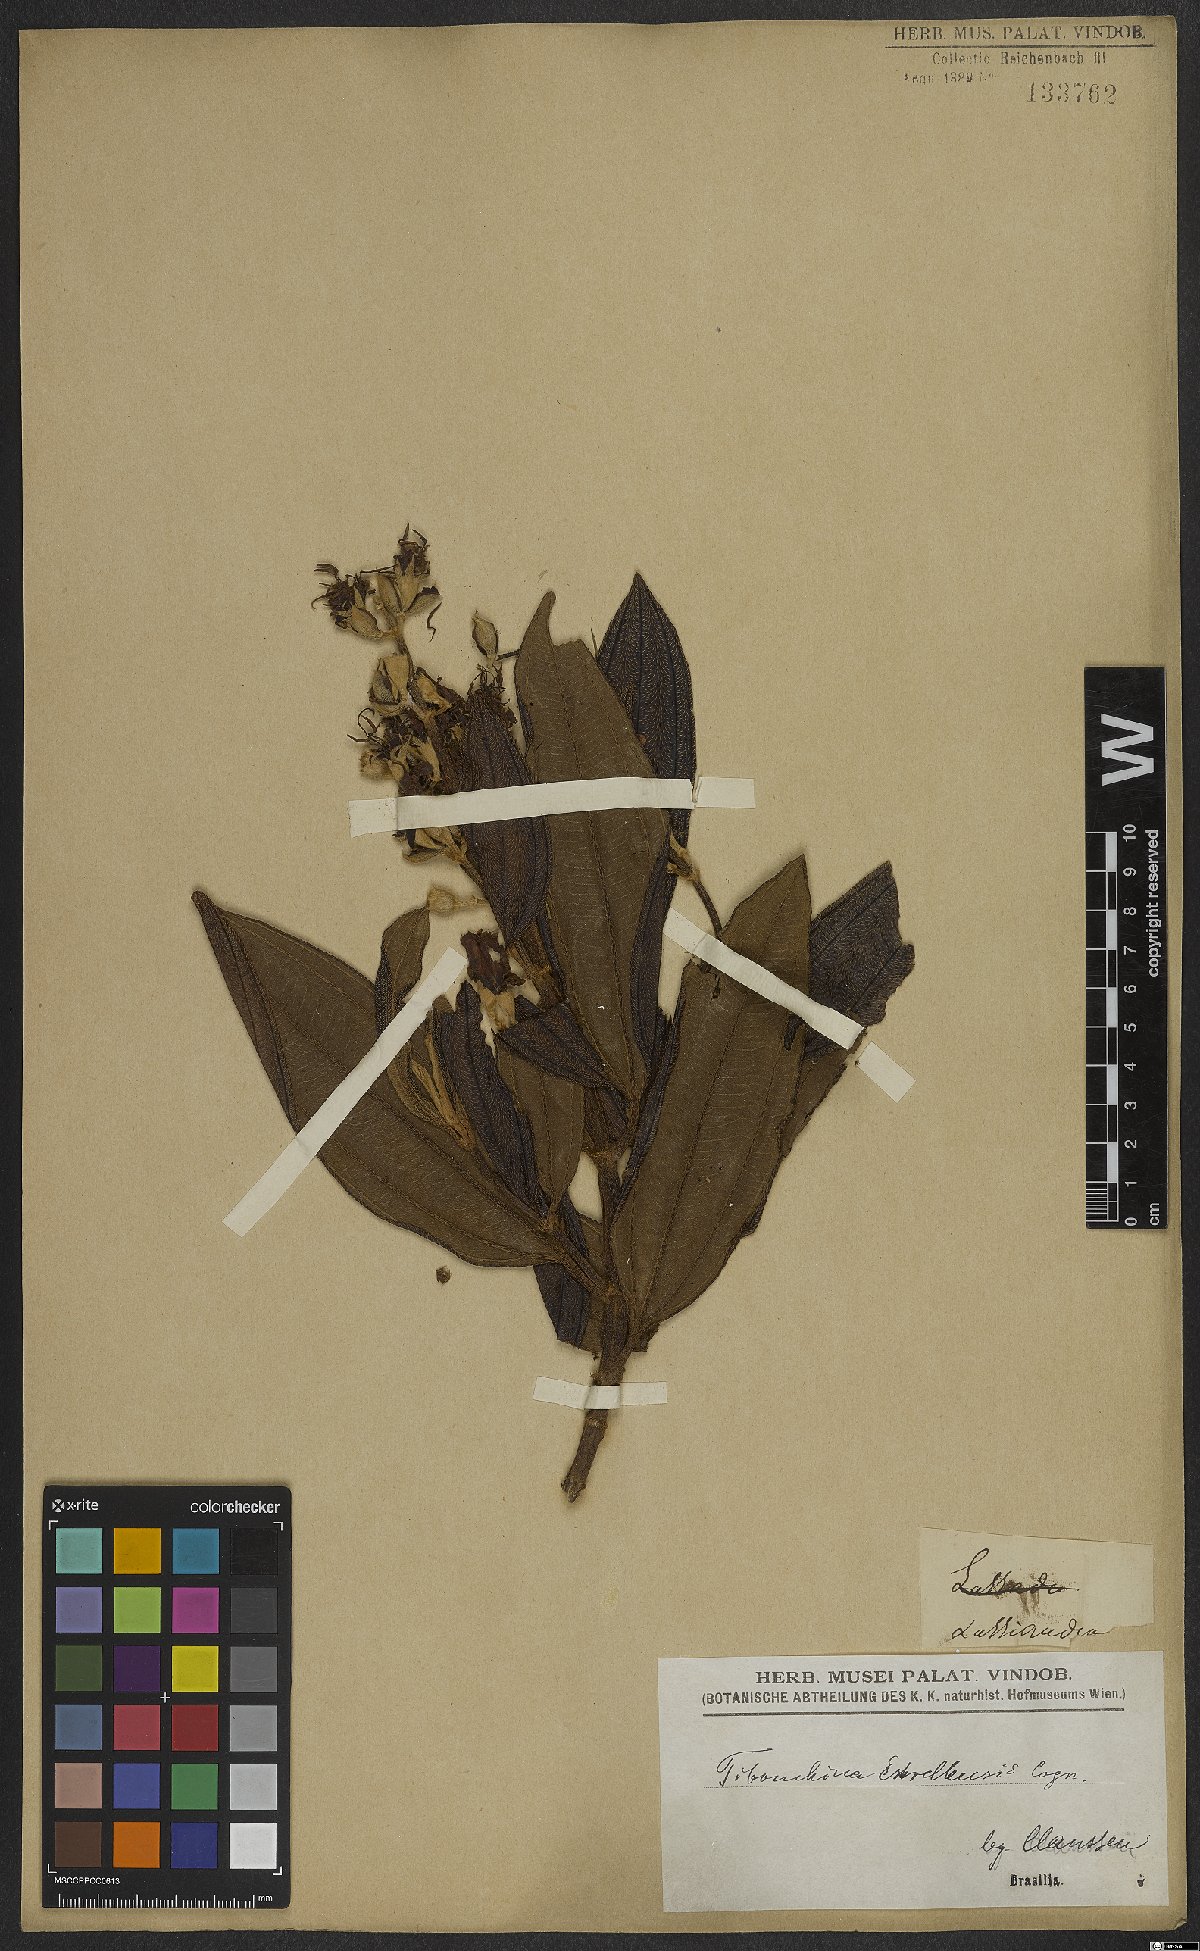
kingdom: Plantae
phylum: Tracheophyta
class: Magnoliopsida
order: Myrtales
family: Melastomataceae
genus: Pleroma
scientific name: Pleroma estrellense
